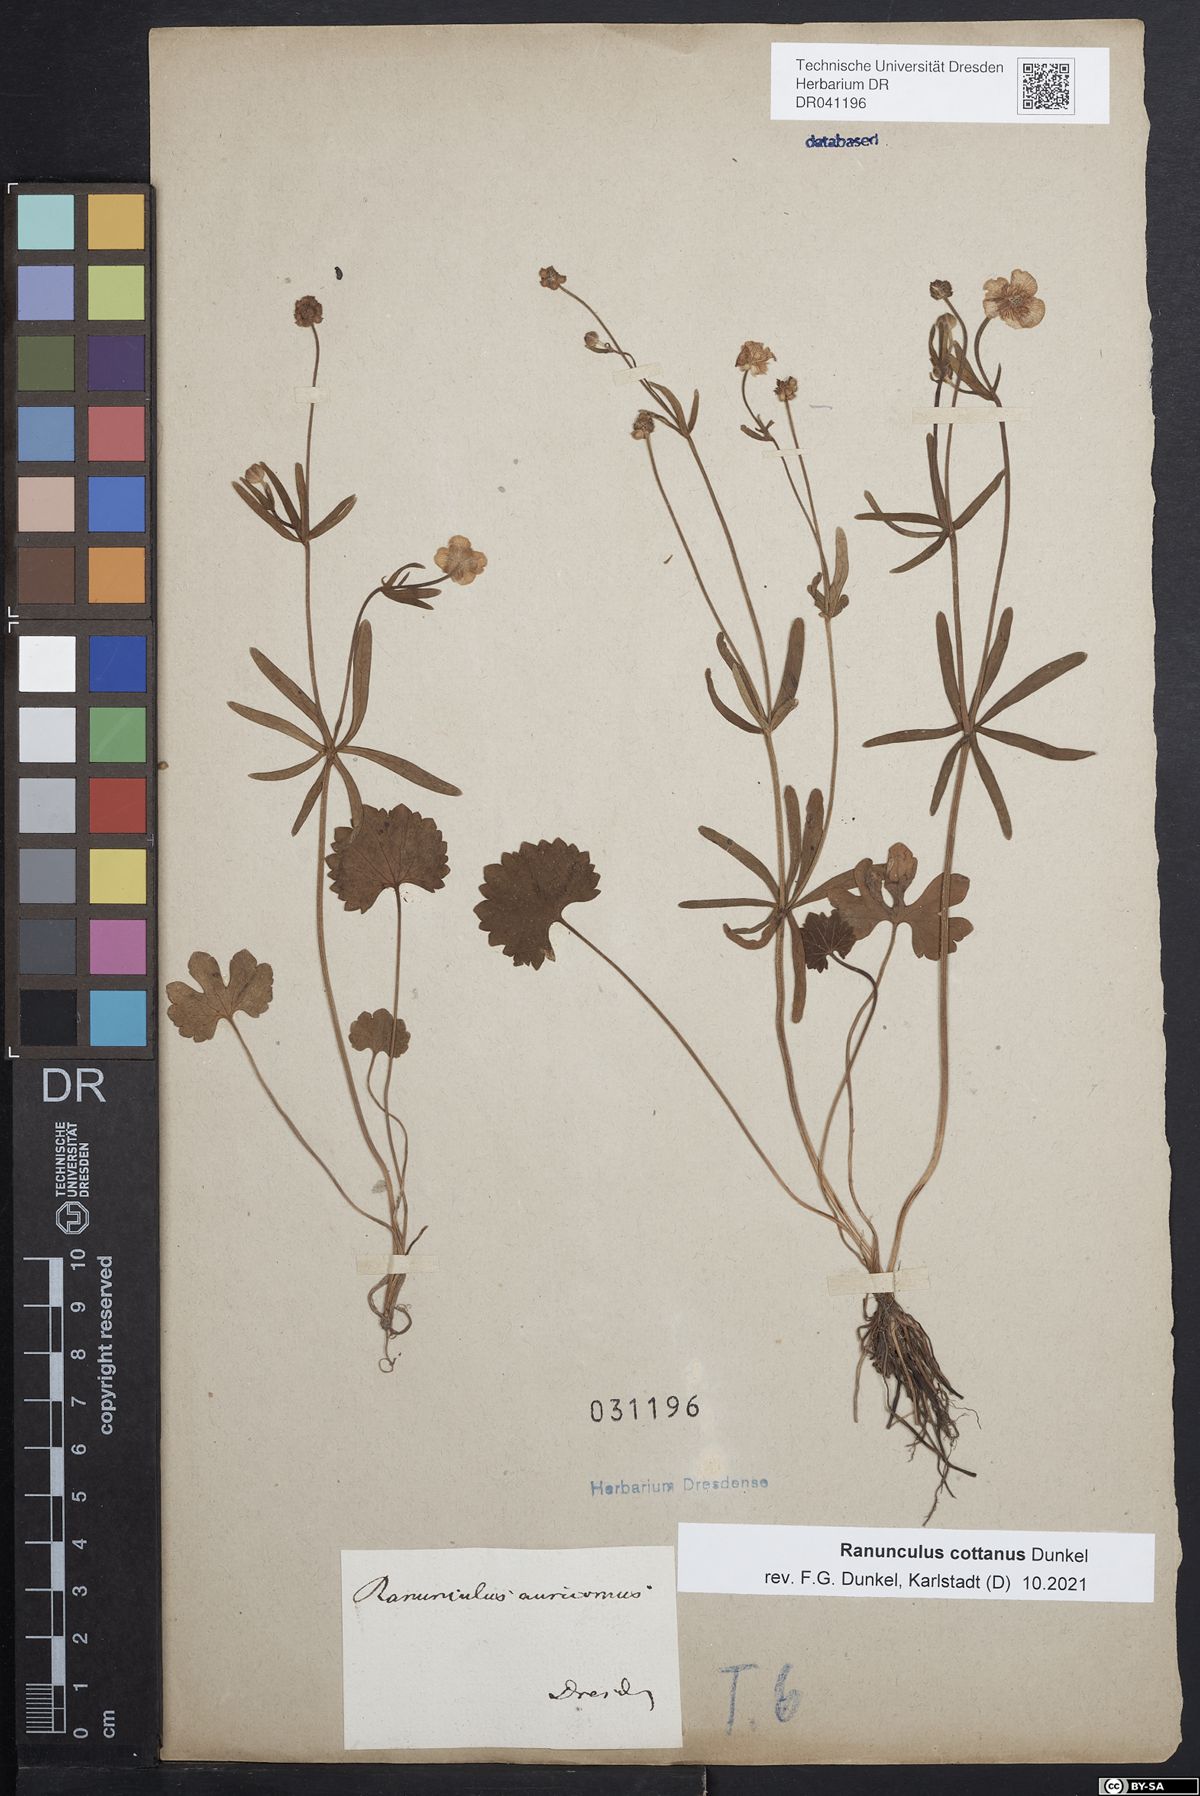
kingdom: Plantae
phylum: Tracheophyta
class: Magnoliopsida
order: Ranunculales
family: Ranunculaceae
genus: Ranunculus
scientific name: Ranunculus cottanus
